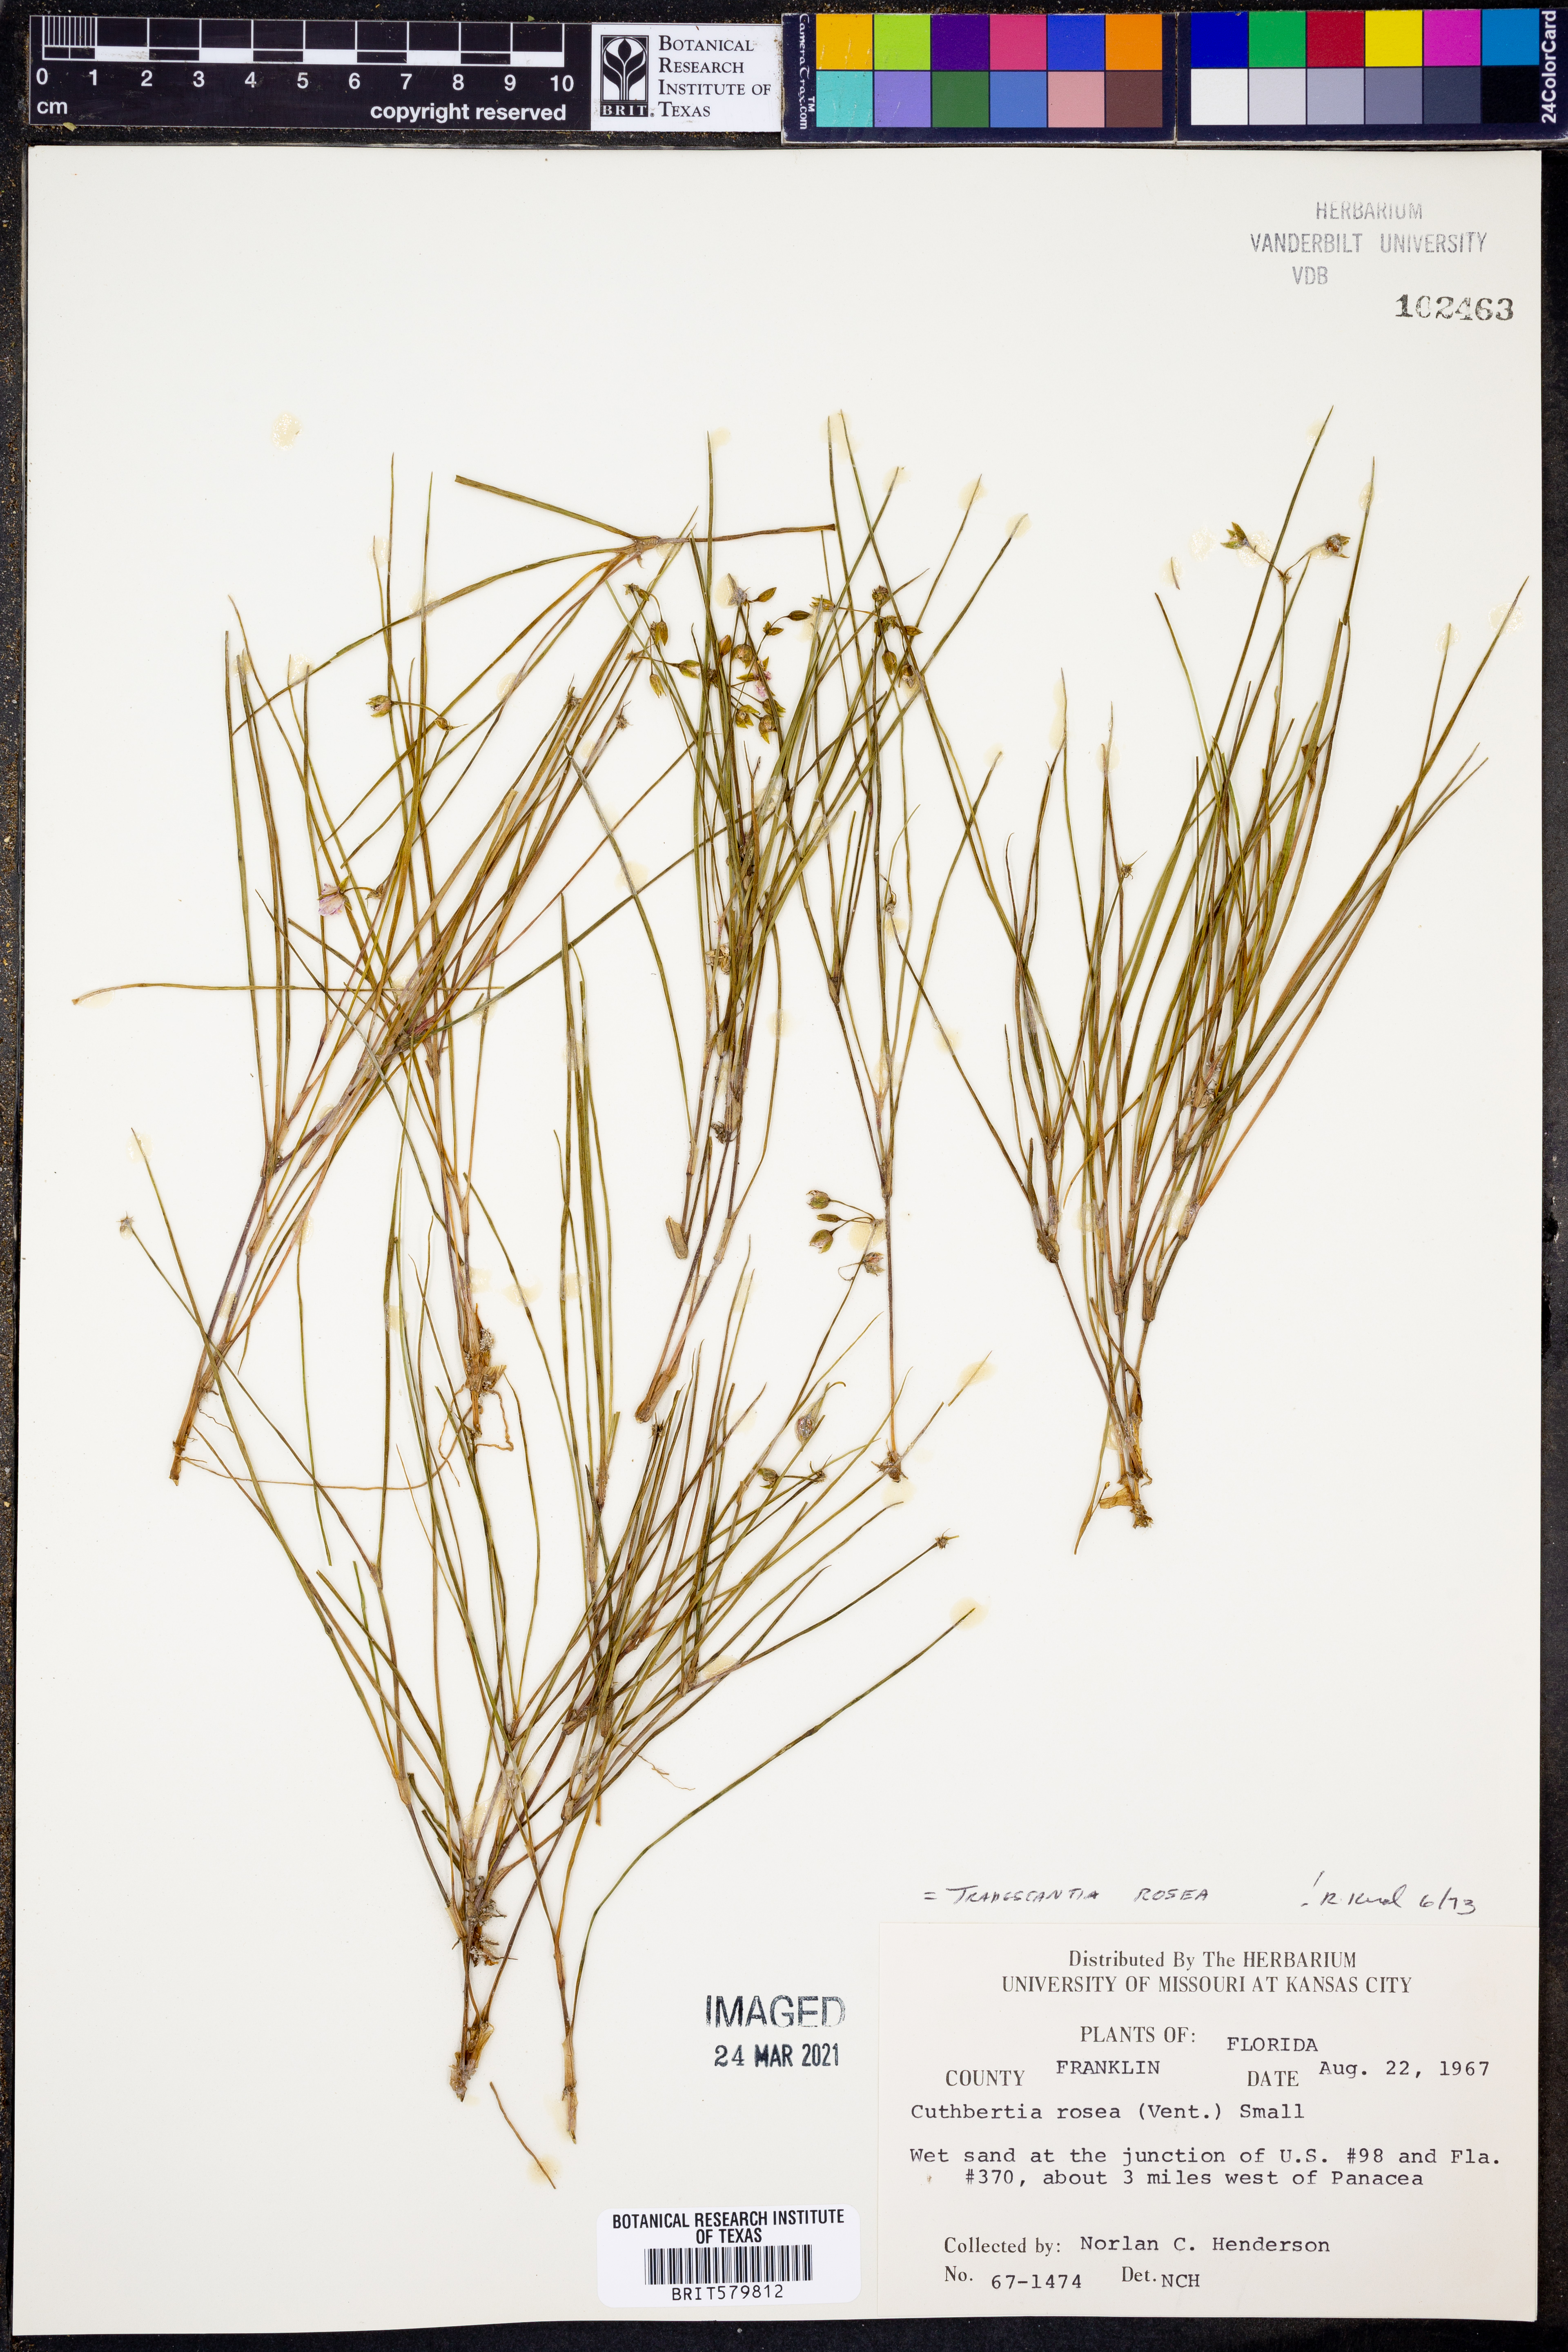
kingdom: Plantae
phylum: Tracheophyta
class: Liliopsida
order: Commelinales
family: Commelinaceae
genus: Callisia
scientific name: Callisia rosea
